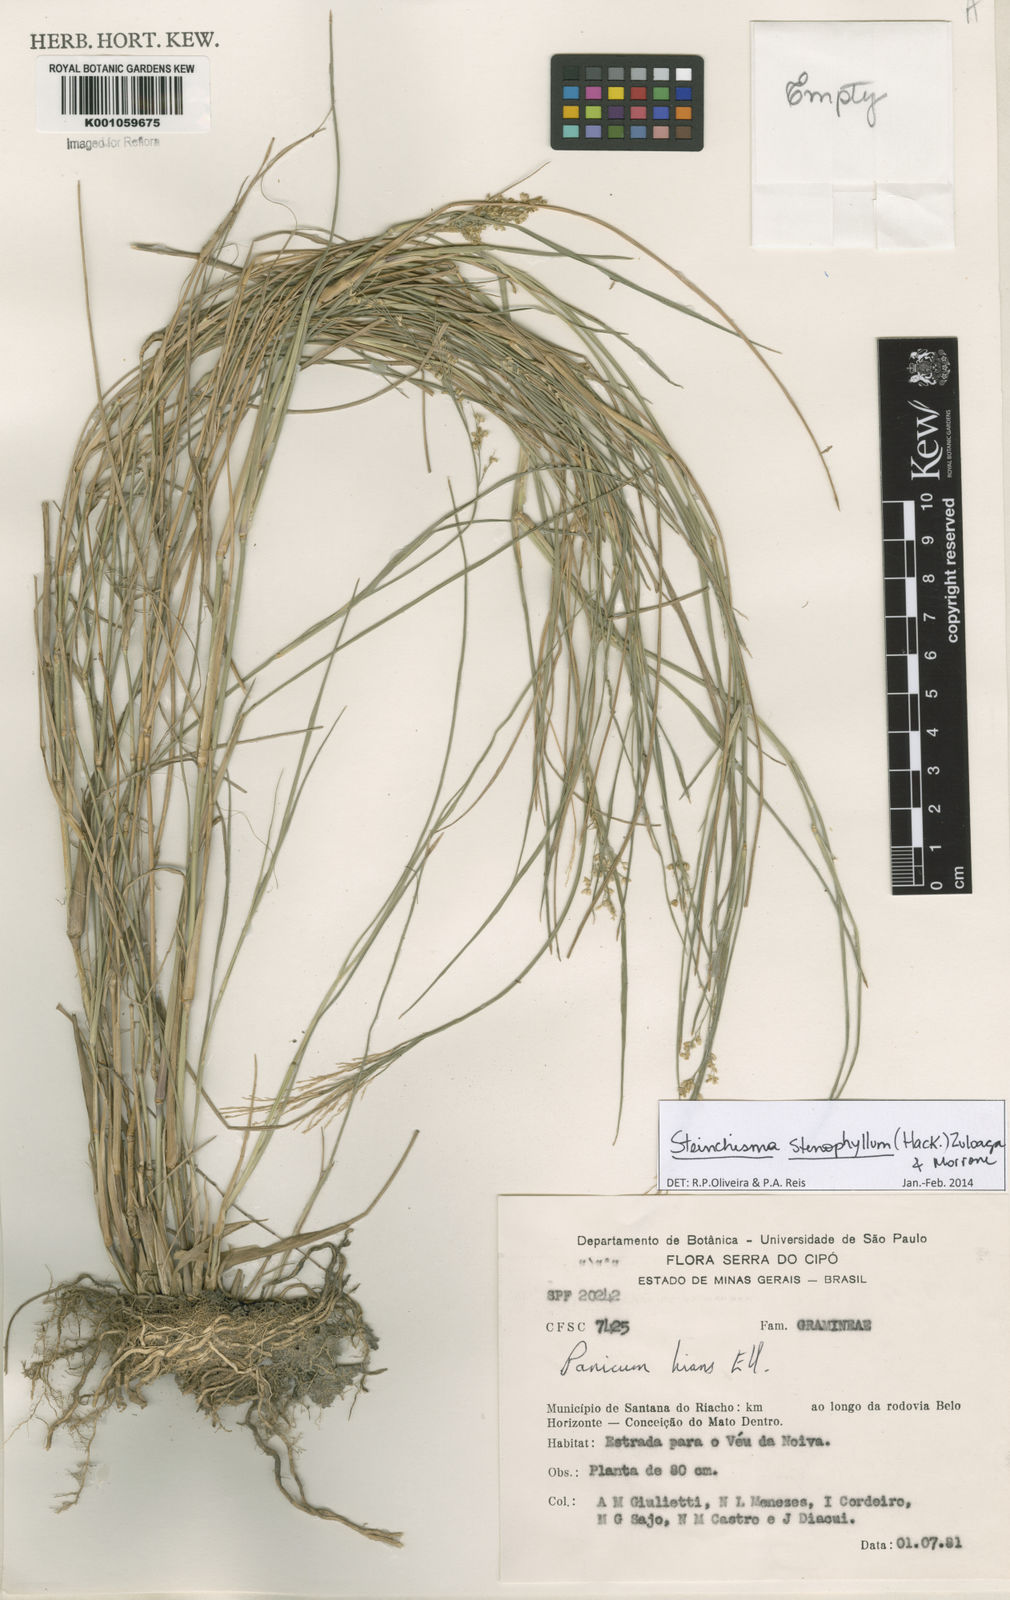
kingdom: Plantae
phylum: Tracheophyta
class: Liliopsida
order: Poales
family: Poaceae
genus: Steinchisma
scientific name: Steinchisma stenophyllum
